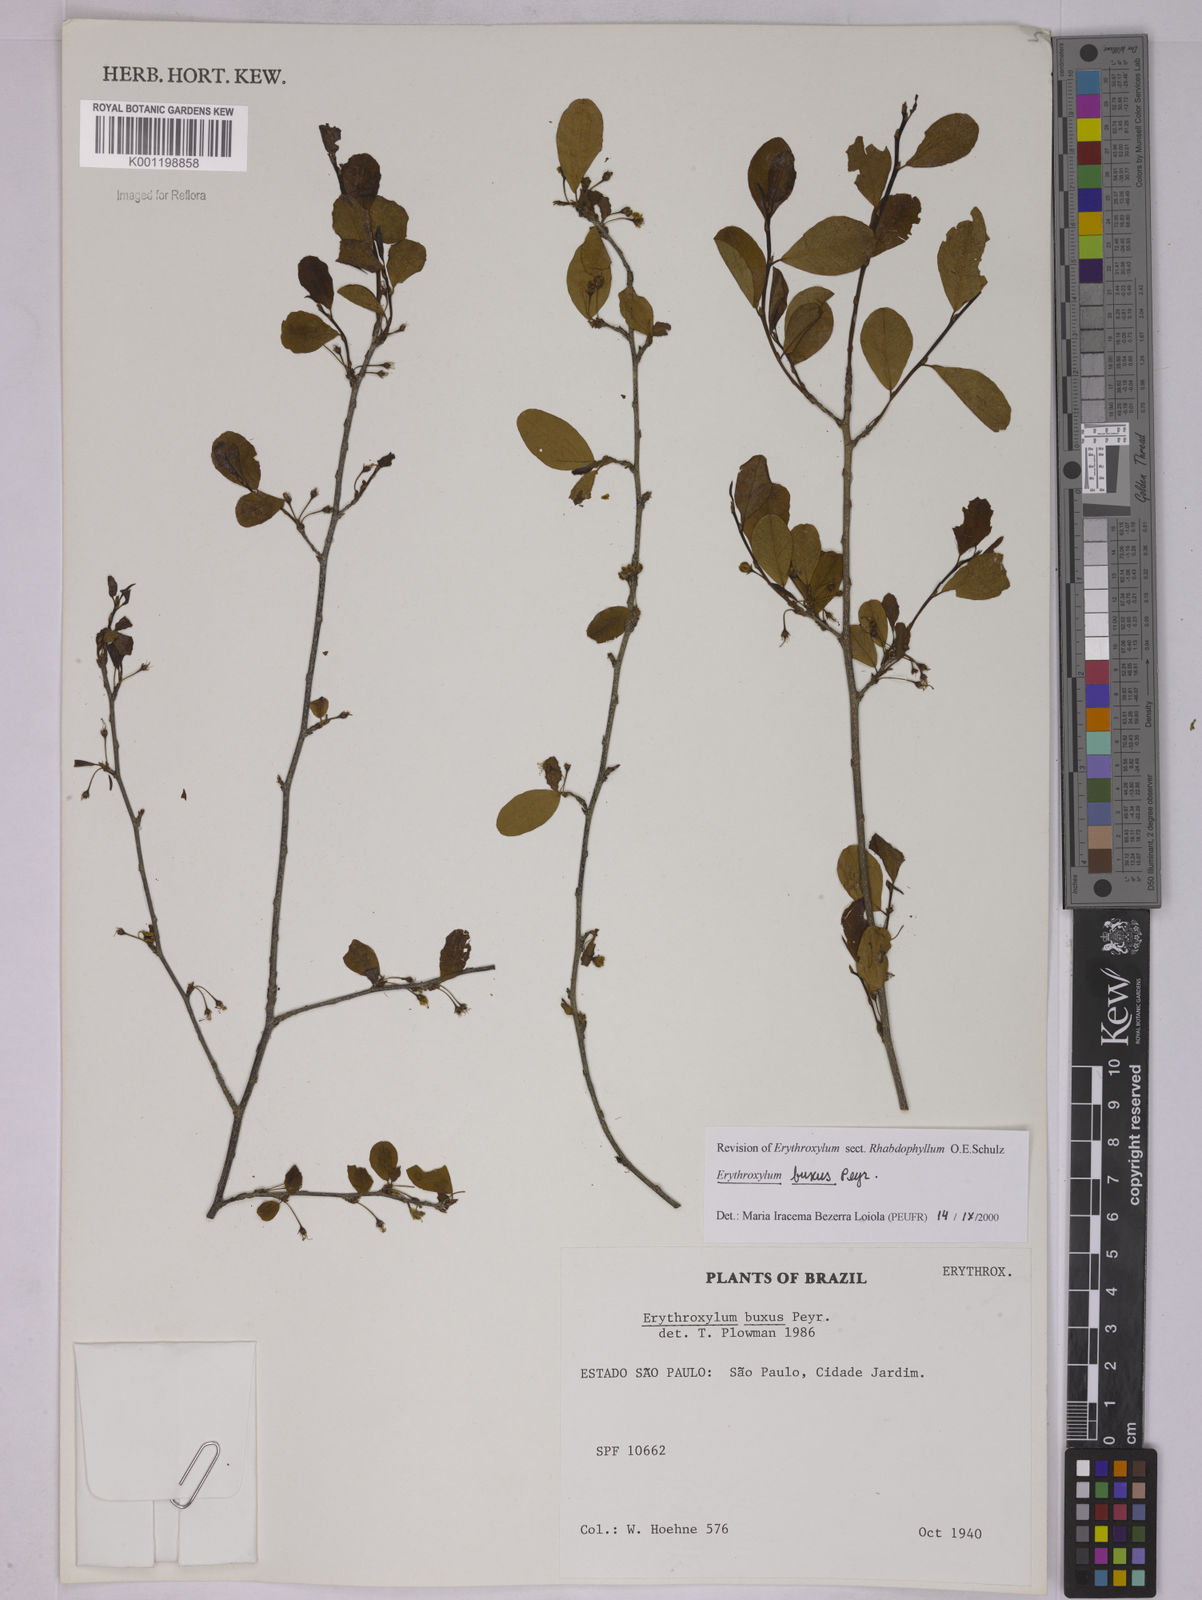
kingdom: Plantae
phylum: Tracheophyta
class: Magnoliopsida
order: Malpighiales
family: Erythroxylaceae
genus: Erythroxylum
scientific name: Erythroxylum buxus
